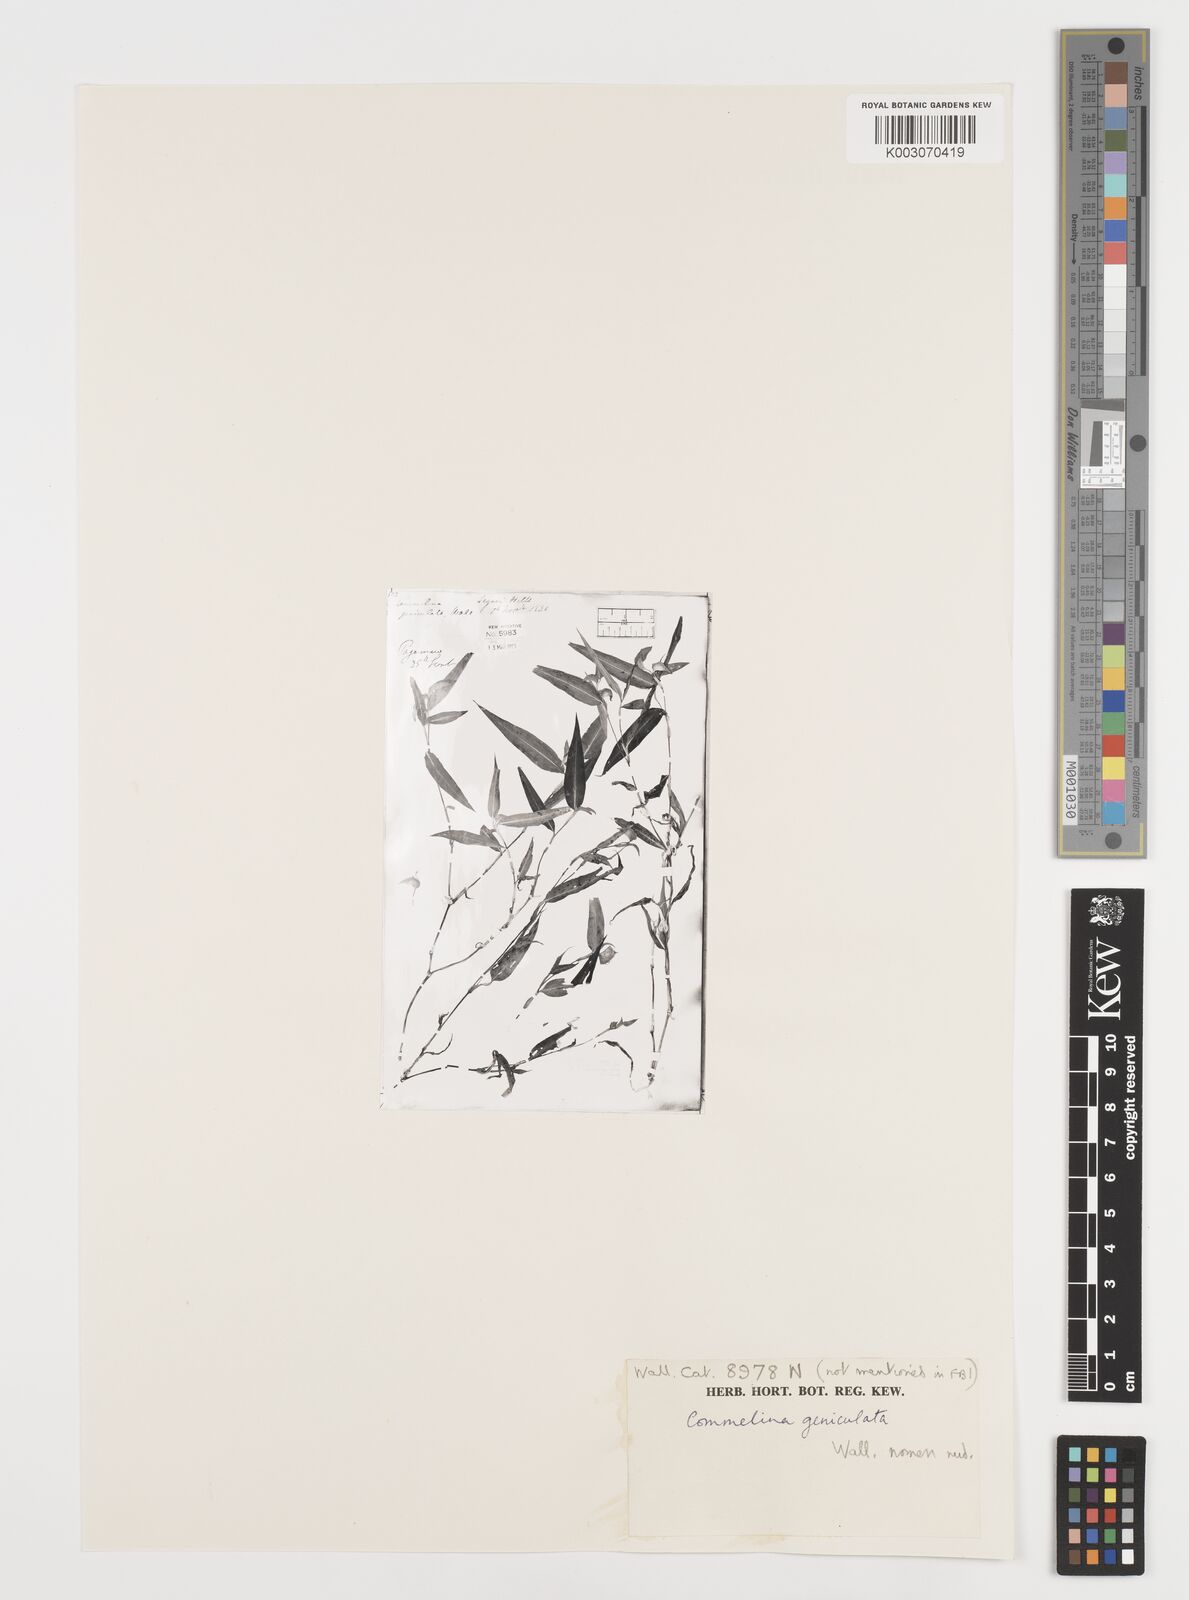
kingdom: Plantae
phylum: Tracheophyta
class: Liliopsida
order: Commelinales
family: Commelinaceae
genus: Commelina
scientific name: Commelina geniculata
